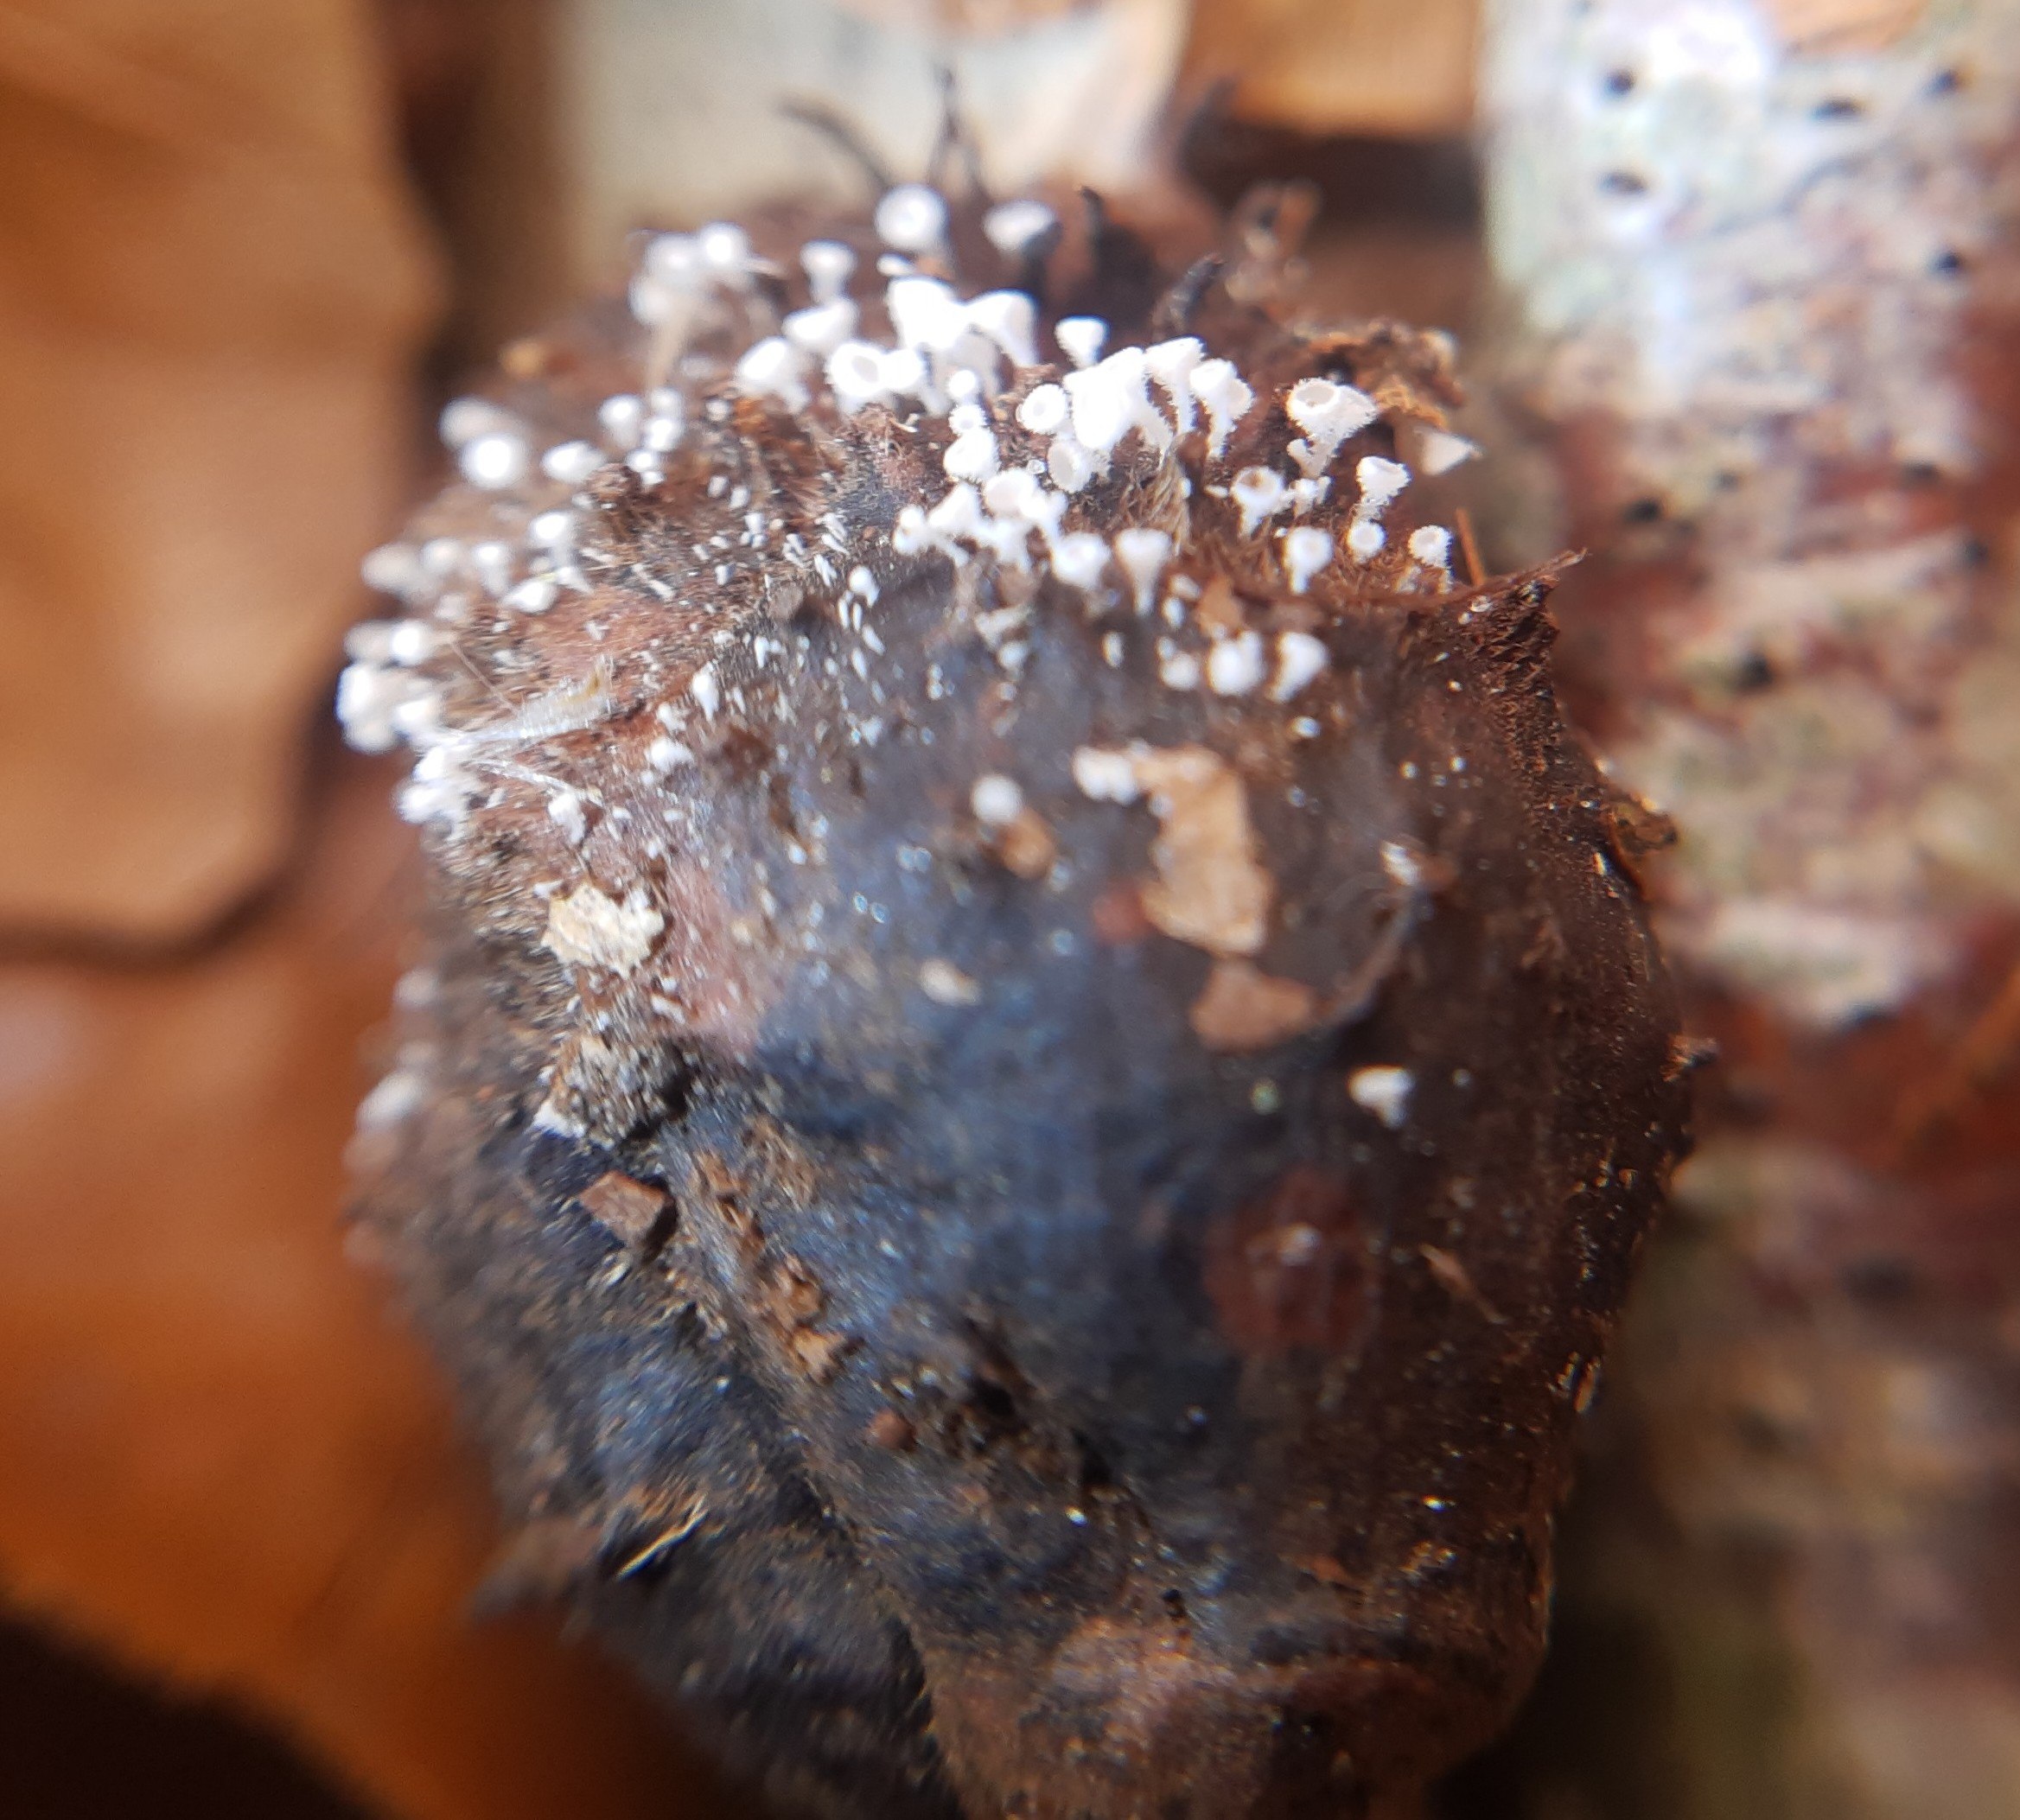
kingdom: Fungi
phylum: Ascomycota
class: Leotiomycetes
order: Helotiales
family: Lachnaceae
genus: Lachnum
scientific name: Lachnum virgineum
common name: jomfru-frynseskive
